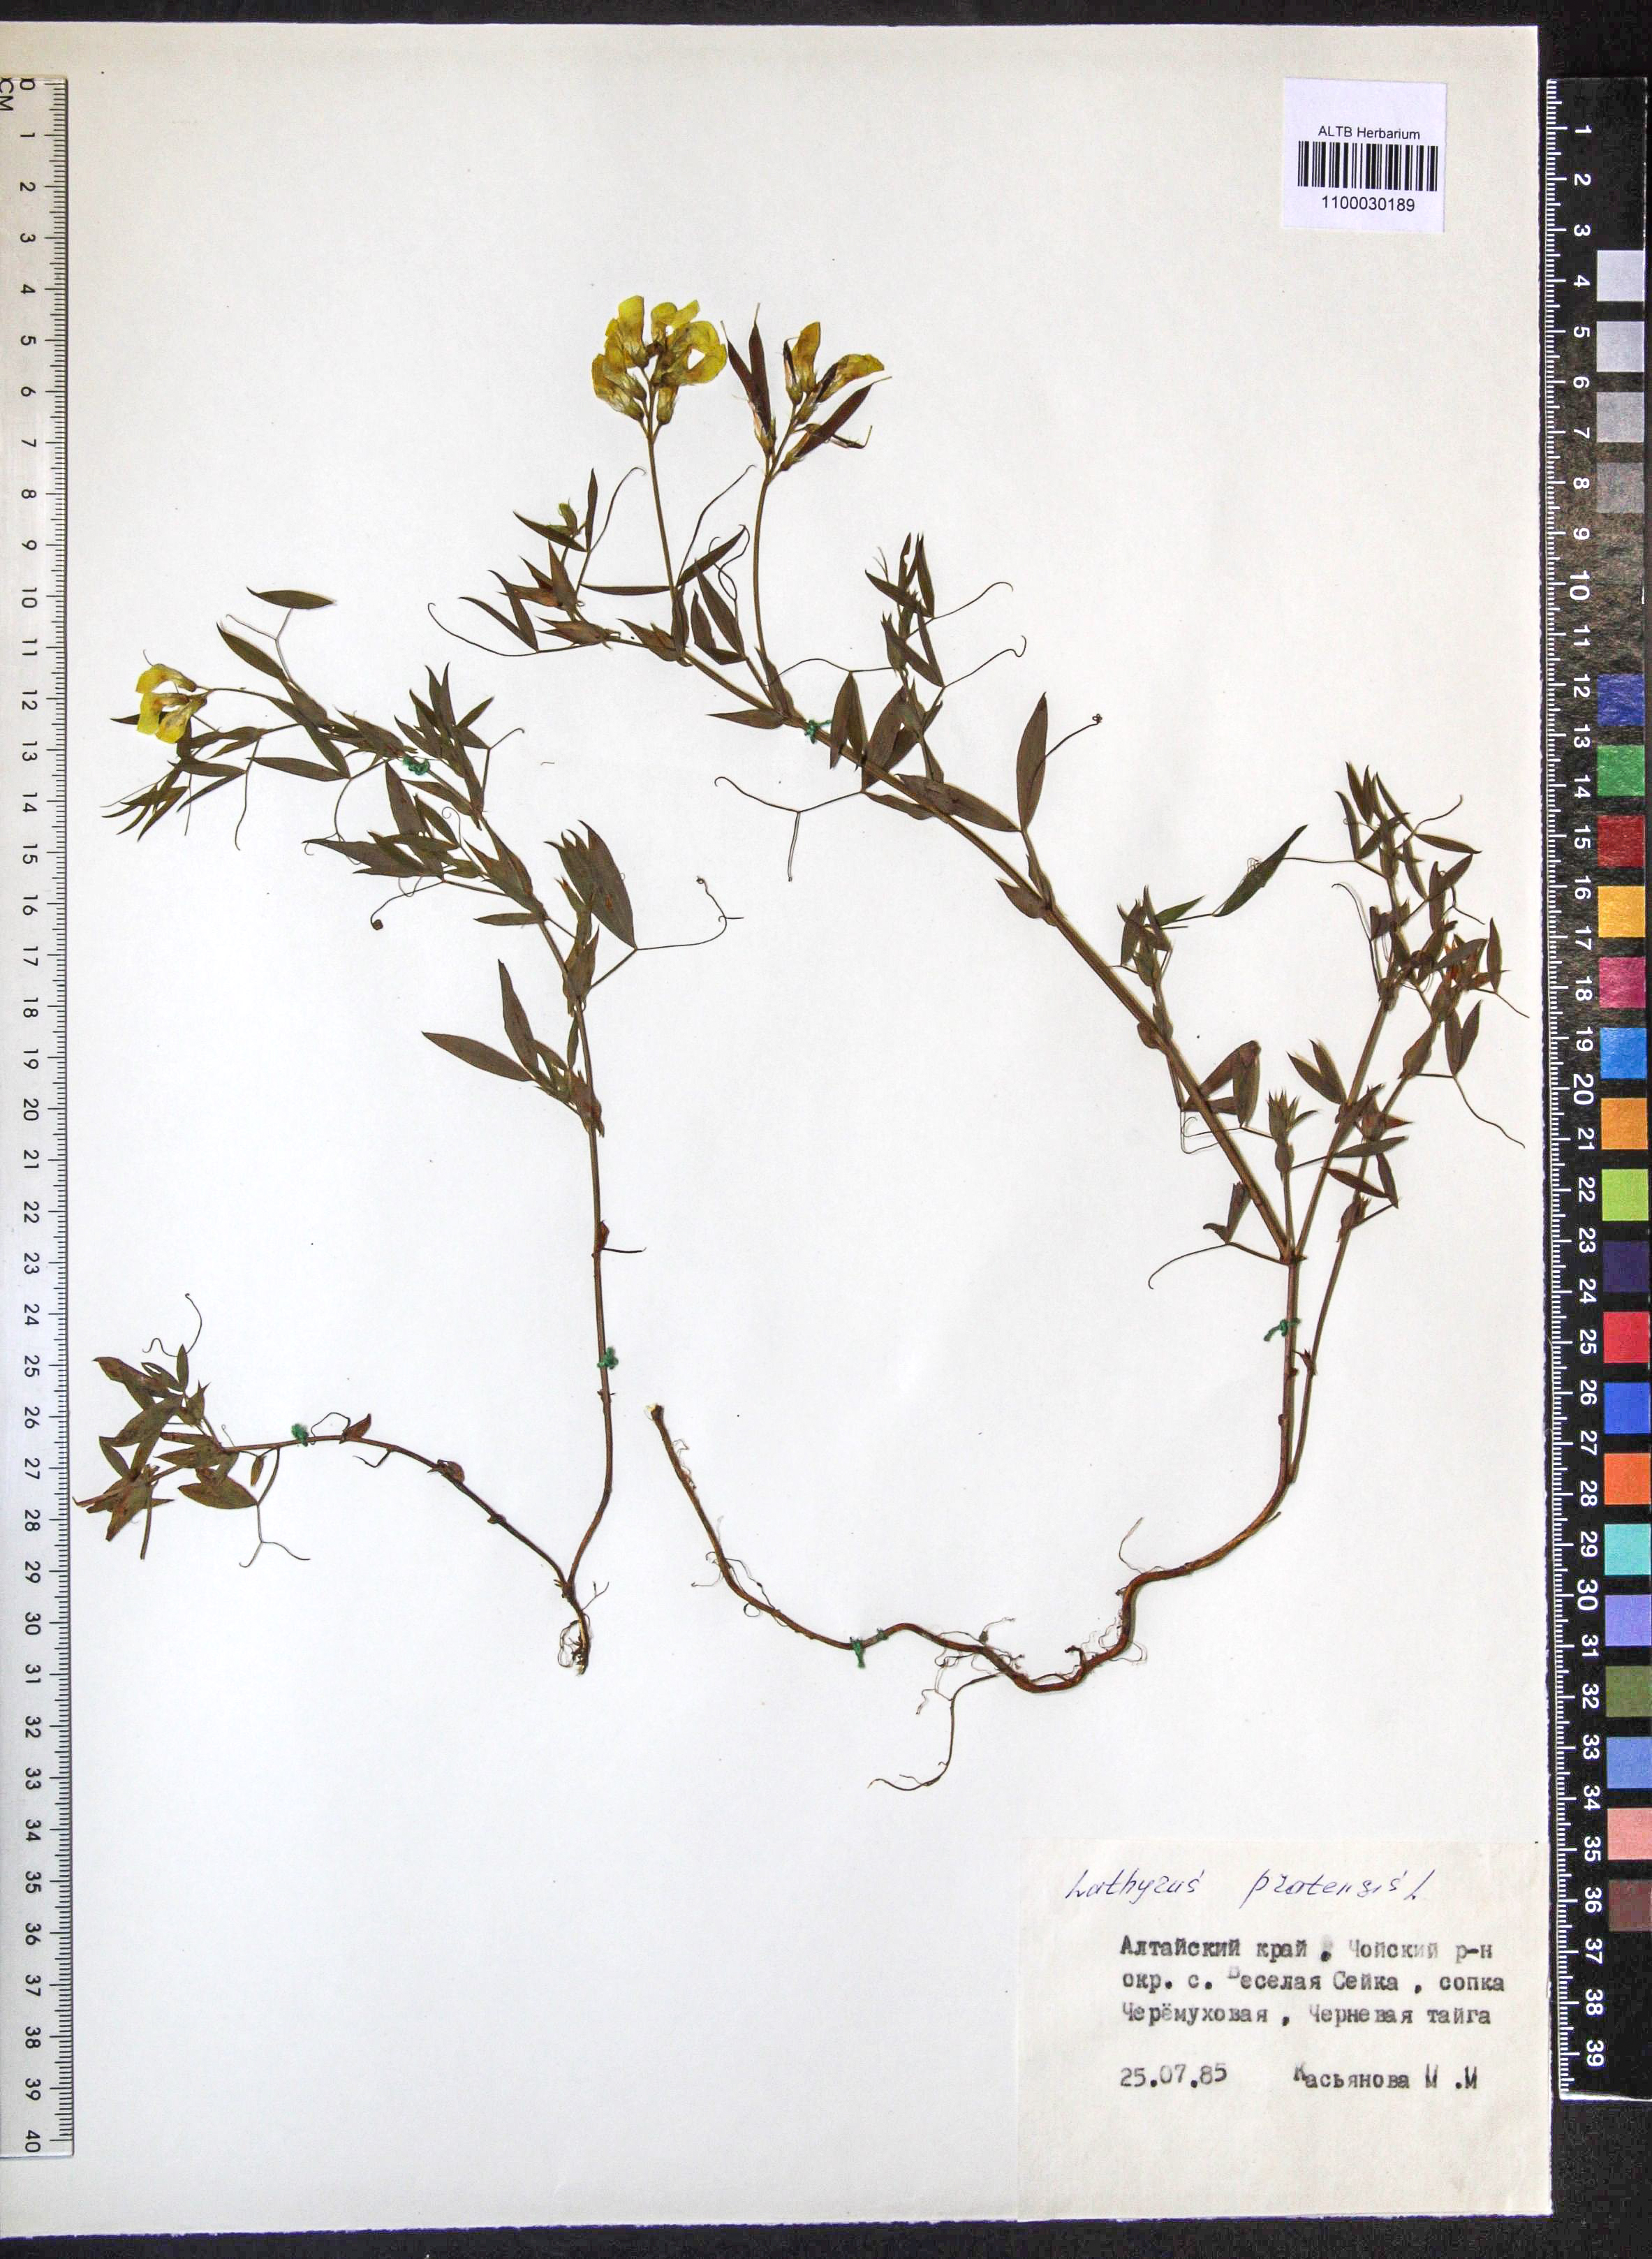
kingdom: Plantae
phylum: Tracheophyta
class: Magnoliopsida
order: Fabales
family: Fabaceae
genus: Lathyrus
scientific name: Lathyrus pratensis
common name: Meadow vetchling
